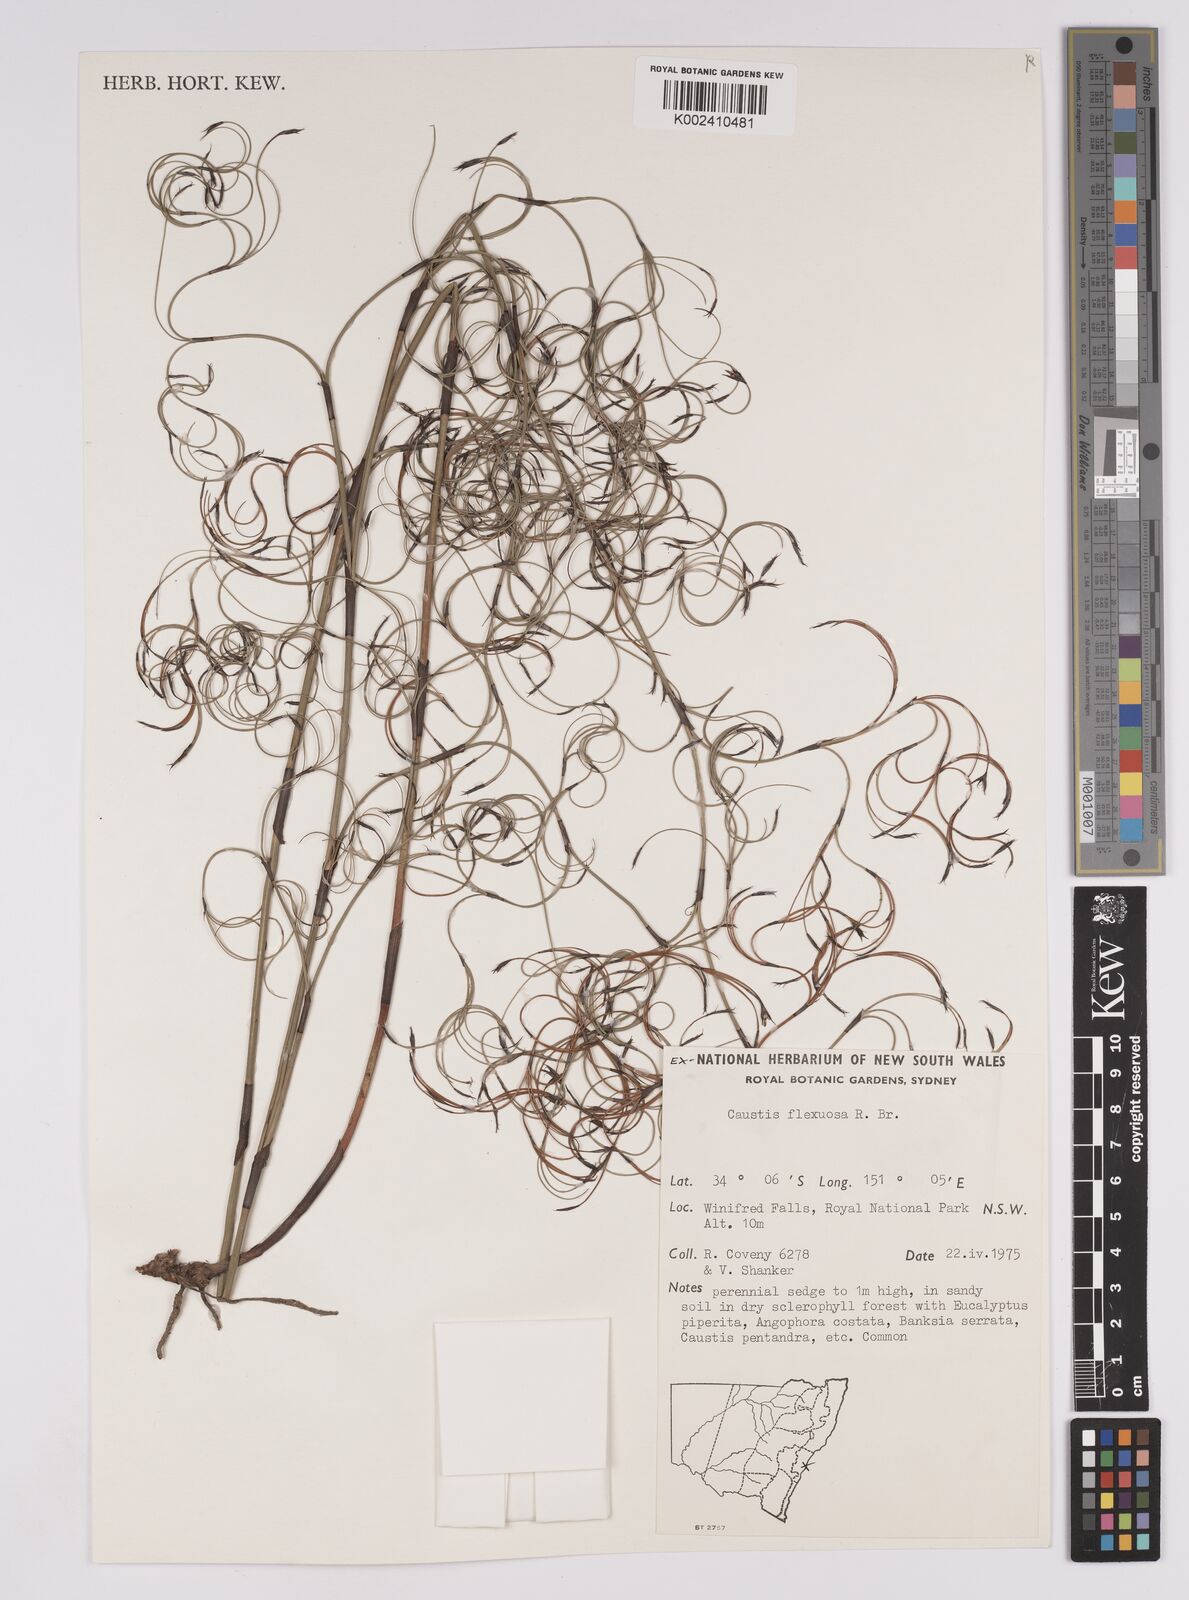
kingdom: Plantae
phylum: Tracheophyta
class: Liliopsida
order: Poales
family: Cyperaceae
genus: Caustis
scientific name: Caustis flexuosa
